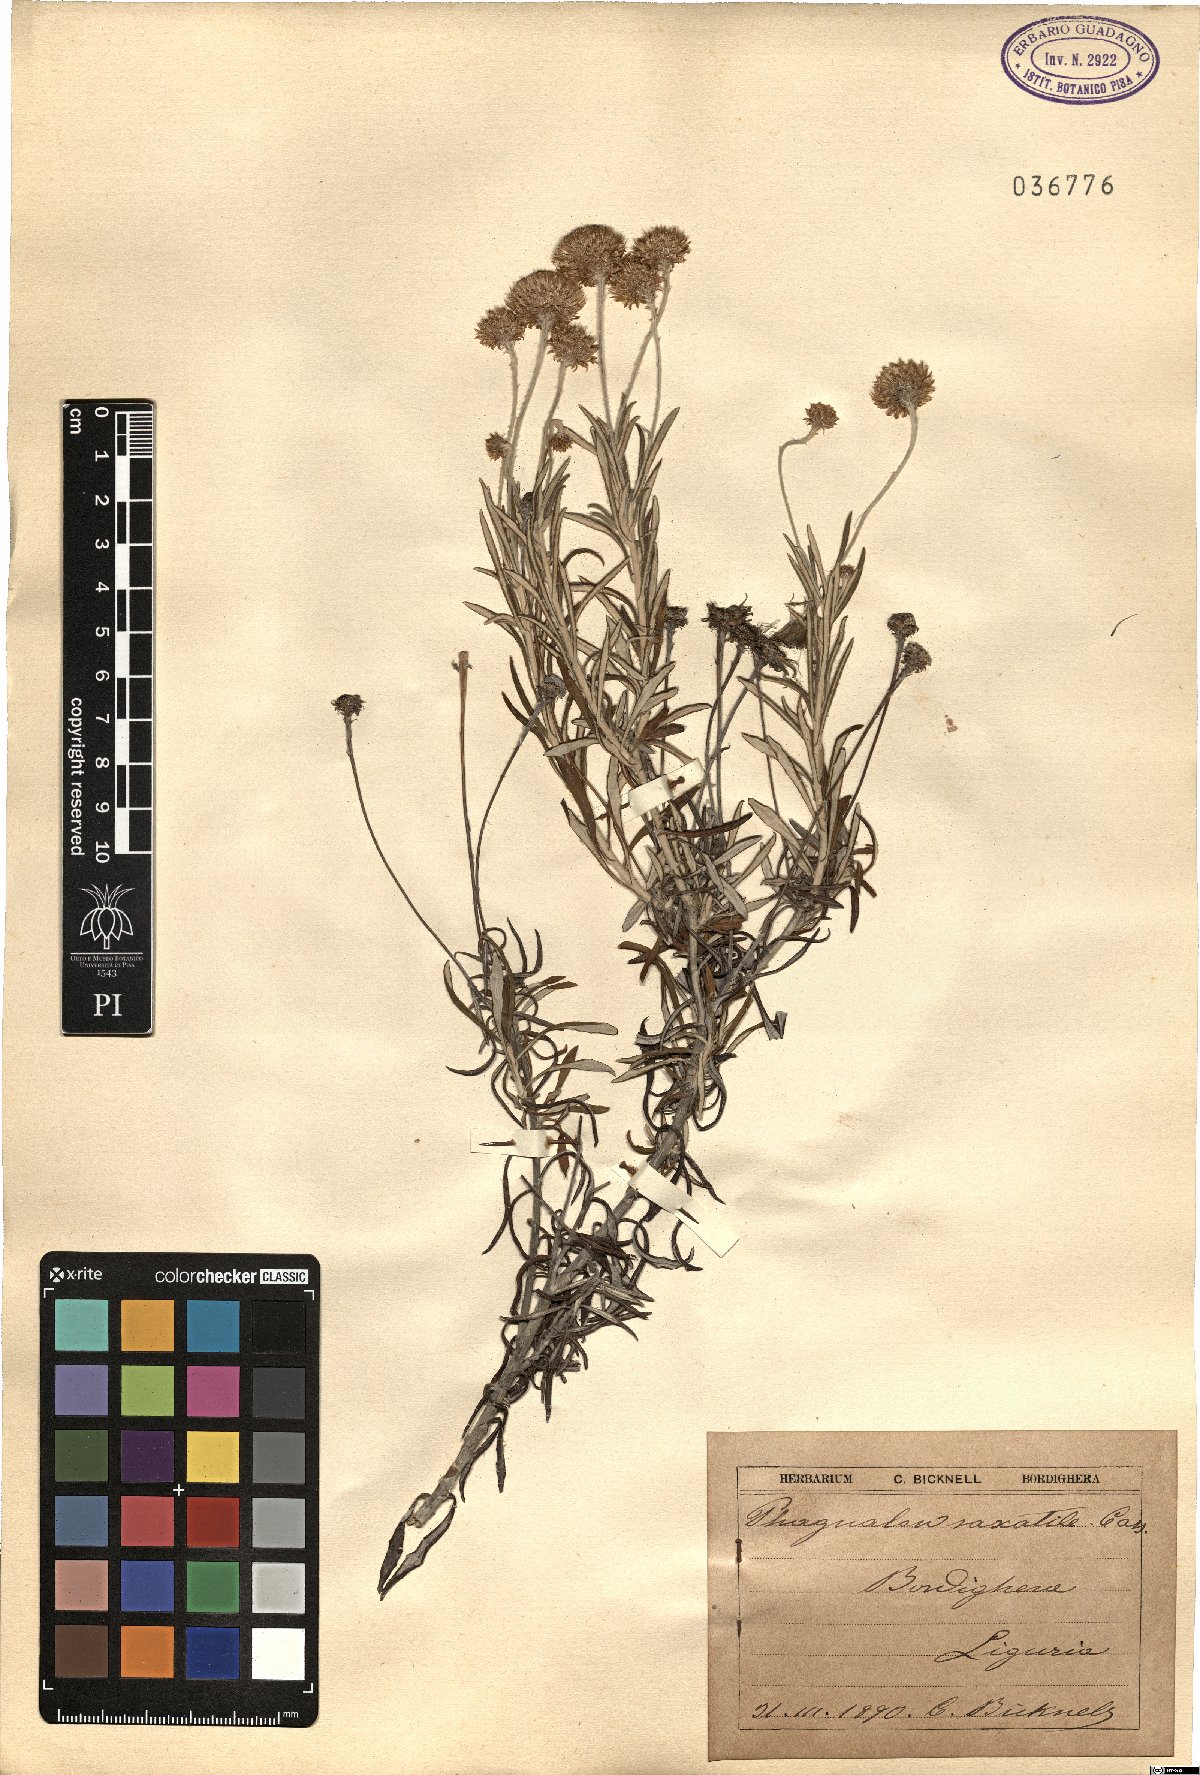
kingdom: Plantae
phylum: Tracheophyta
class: Magnoliopsida
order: Asterales
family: Asteraceae
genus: Phagnalon
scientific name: Phagnalon saxatile
